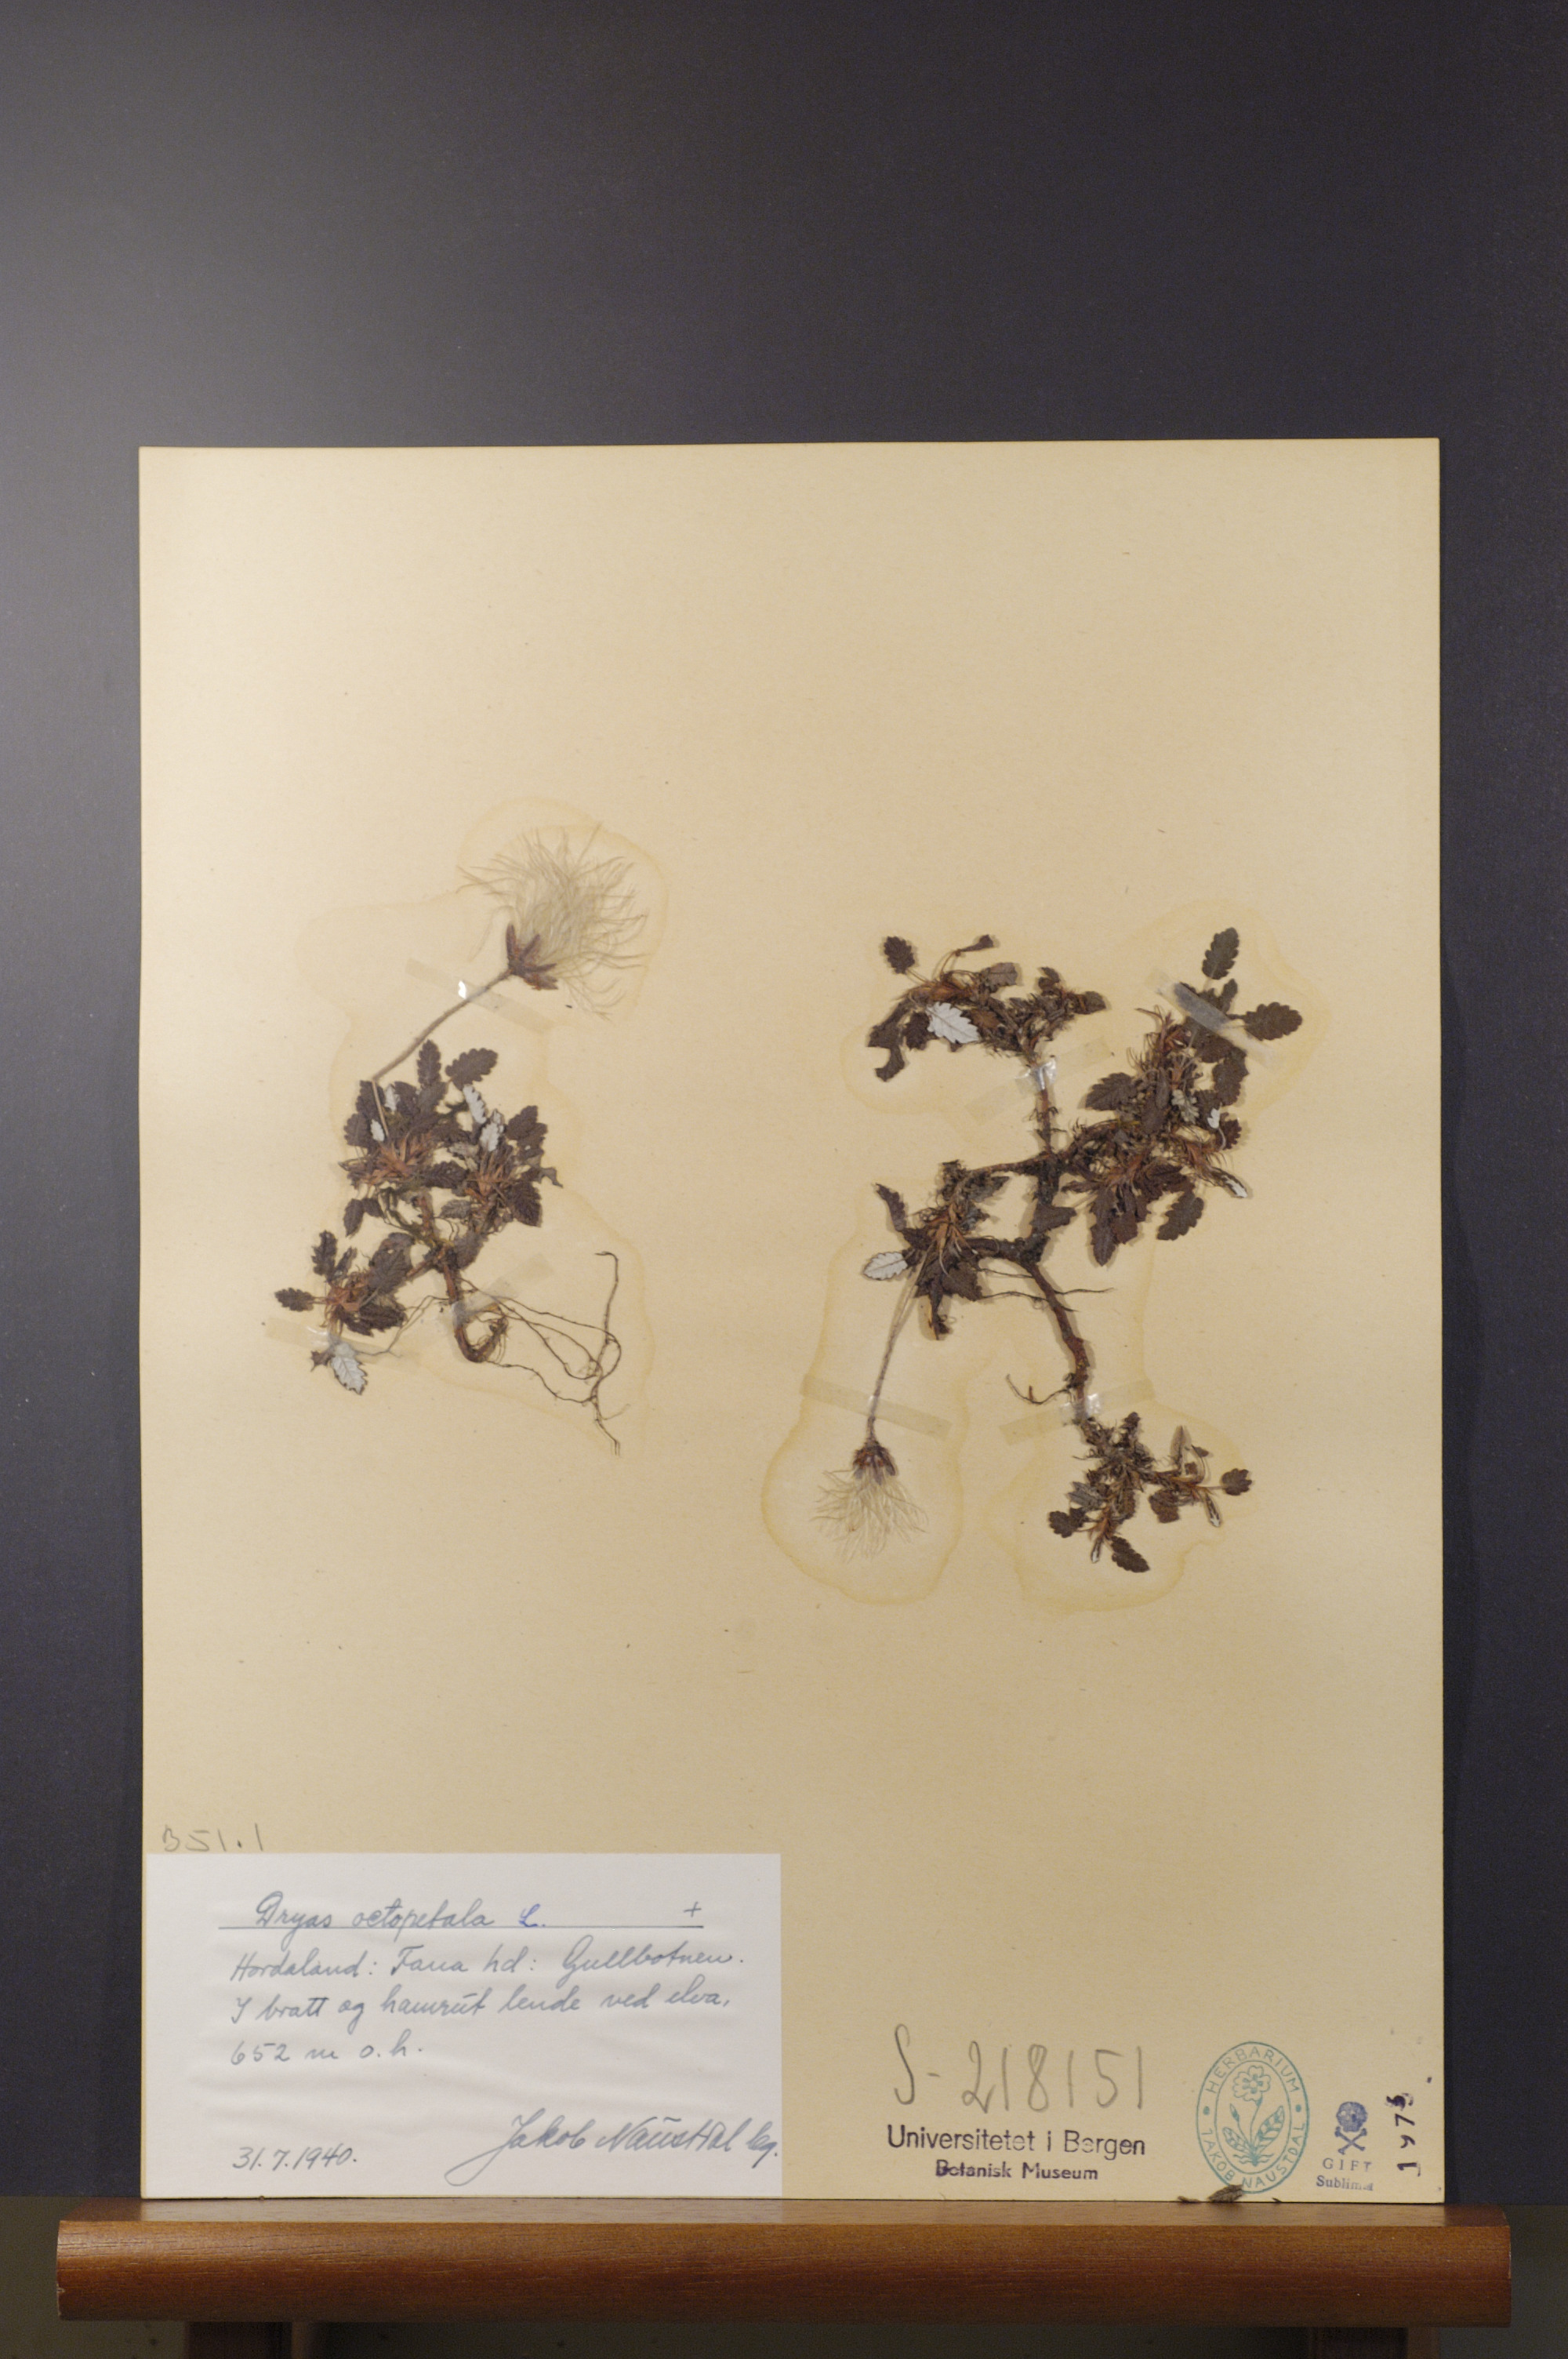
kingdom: Plantae
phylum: Tracheophyta
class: Magnoliopsida
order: Rosales
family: Rosaceae
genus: Dryas
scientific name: Dryas octopetala
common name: Eight-petal mountain-avens
